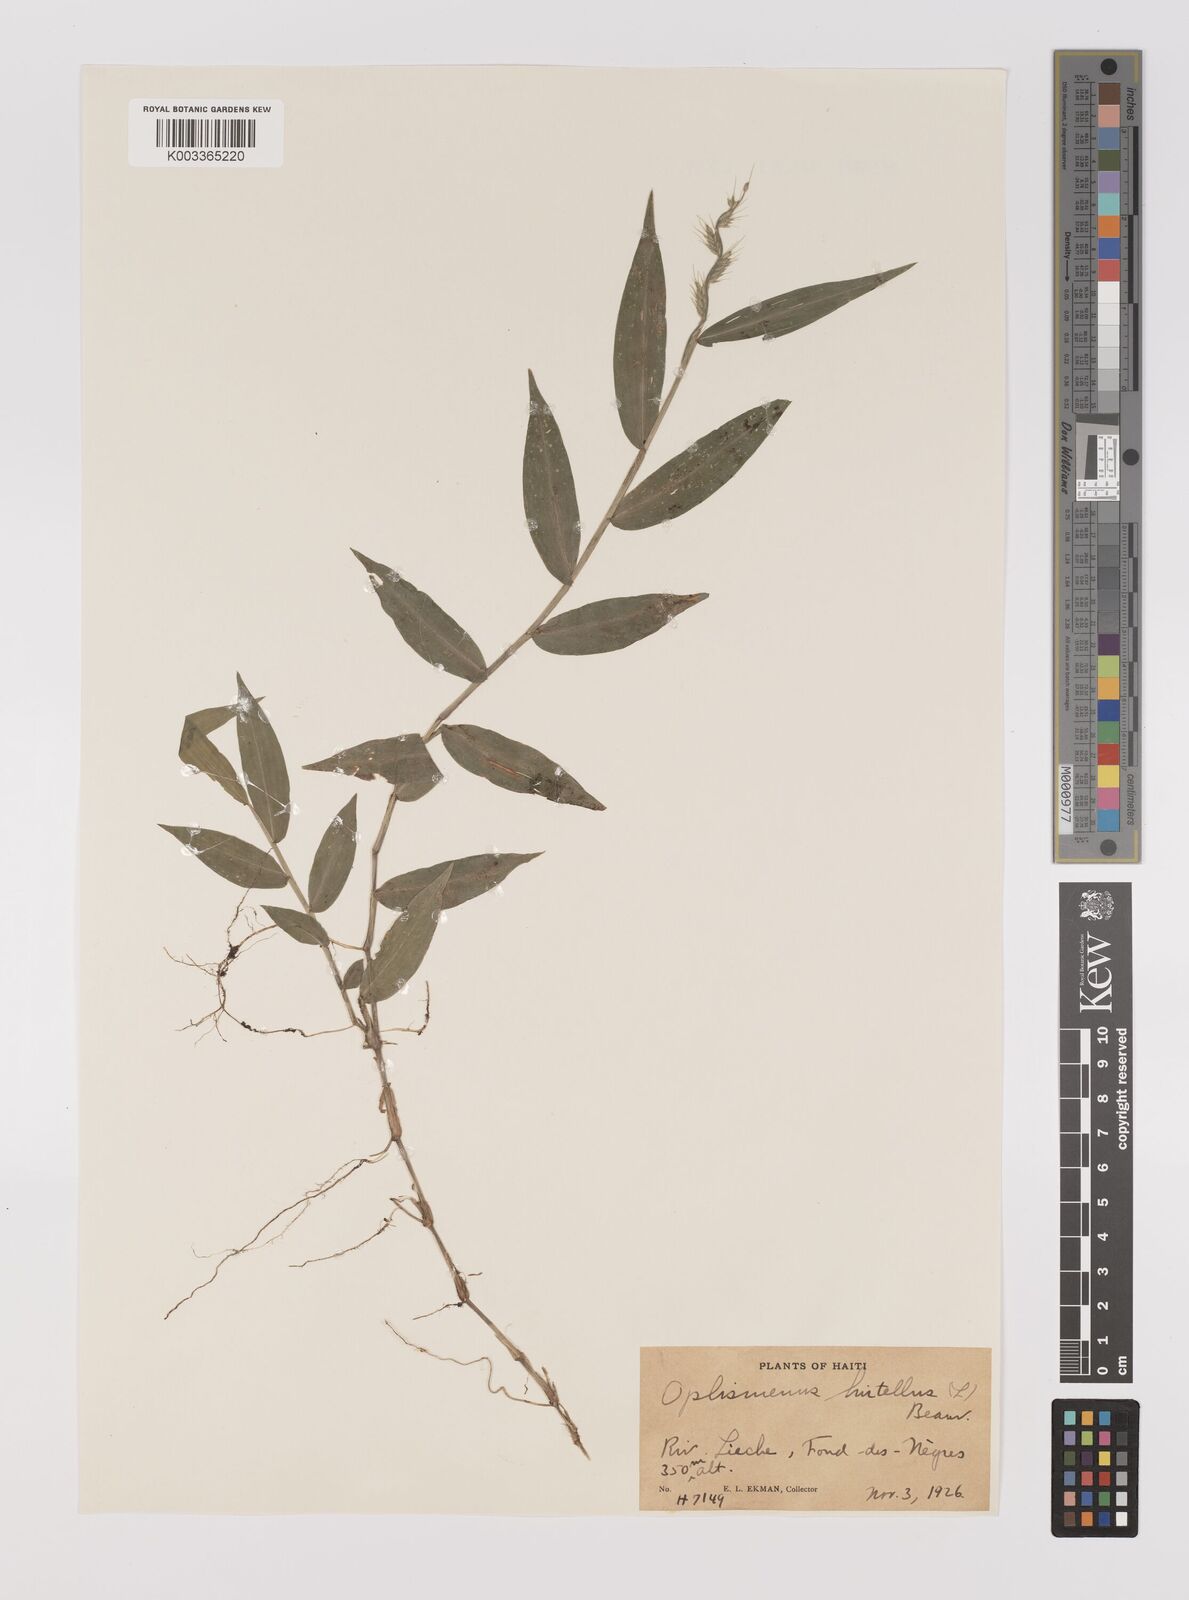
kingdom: Plantae
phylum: Tracheophyta
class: Liliopsida
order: Poales
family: Poaceae
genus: Oplismenus
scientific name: Oplismenus hirtellus
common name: Basketgrass
